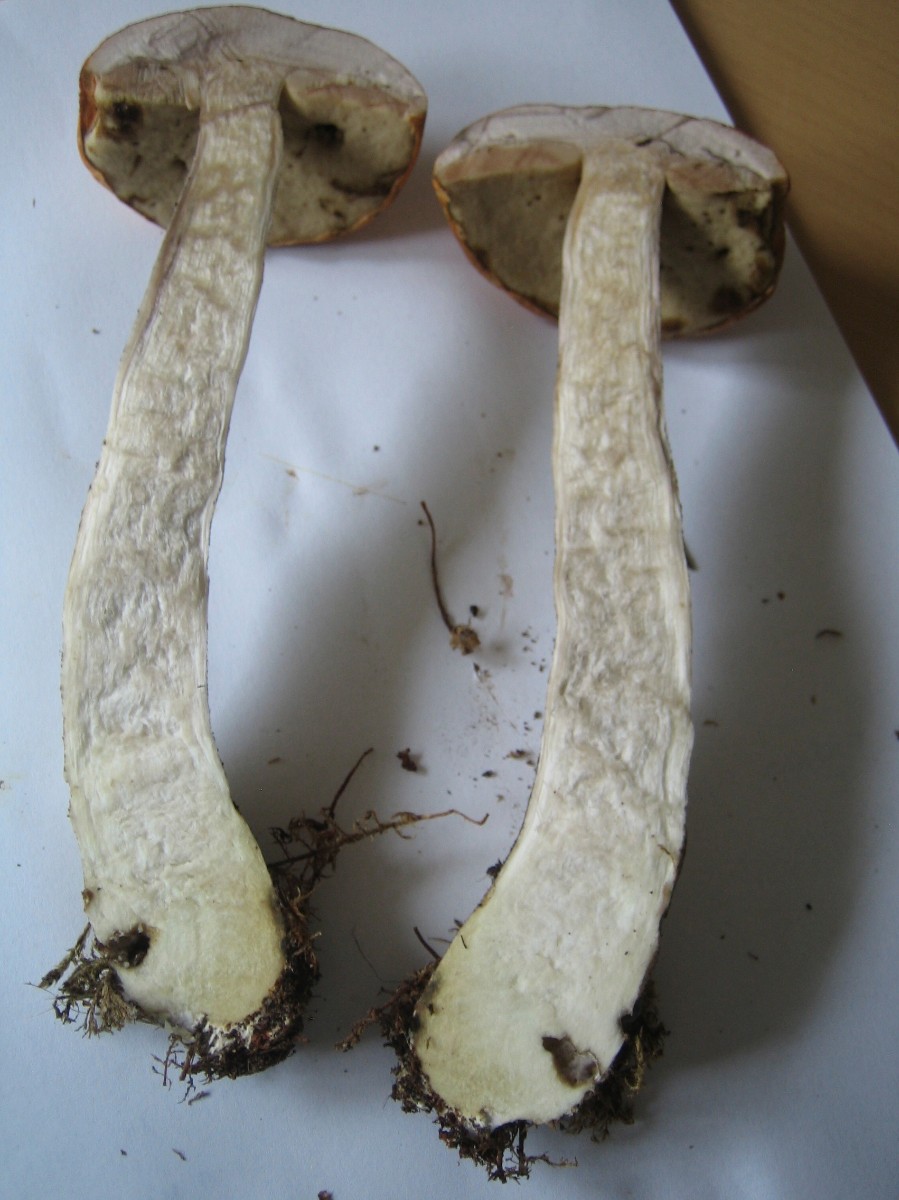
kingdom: Fungi
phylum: Basidiomycota
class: Agaricomycetes
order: Boletales
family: Boletaceae
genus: Leccinum
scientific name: Leccinum versipelle
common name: orange skælrørhat
